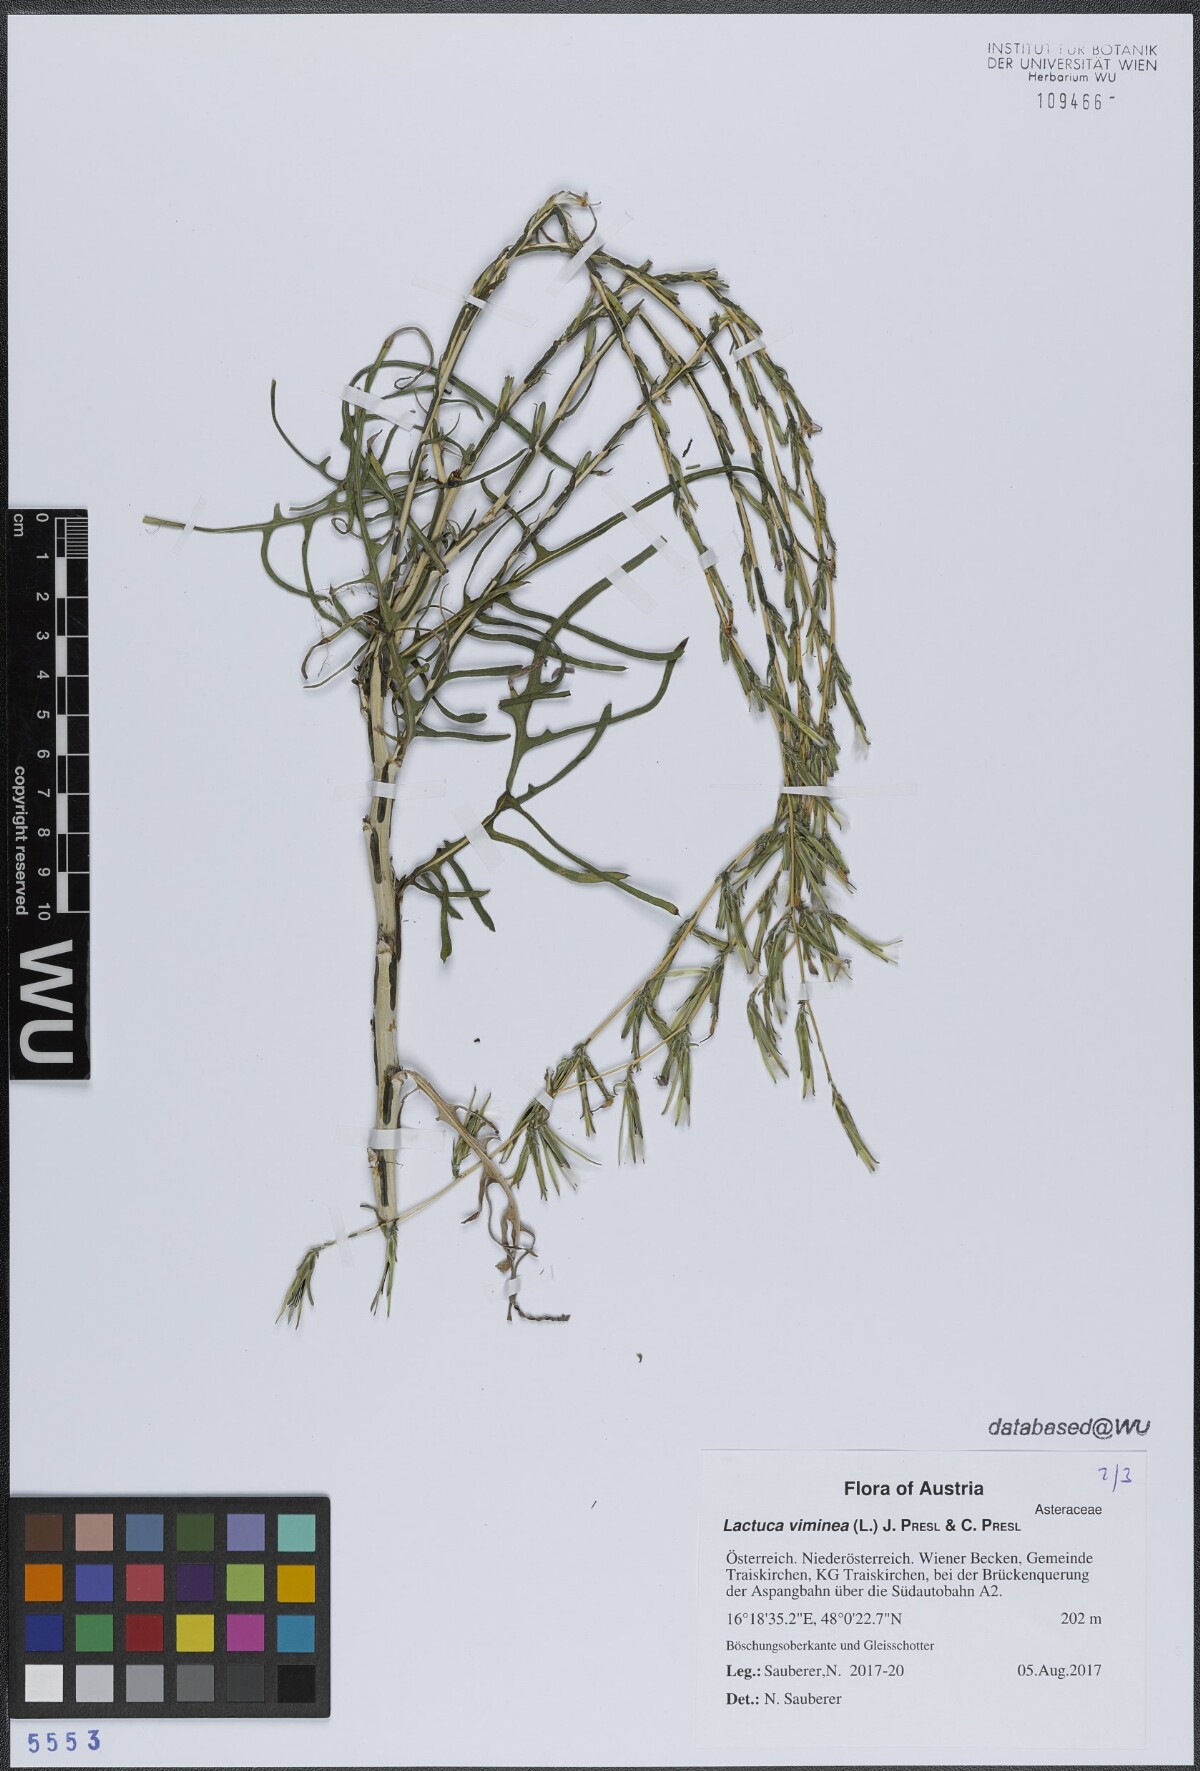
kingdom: Plantae
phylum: Tracheophyta
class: Magnoliopsida
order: Asterales
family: Asteraceae
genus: Lactuca
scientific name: Lactuca viminea
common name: Pliant lettuce
